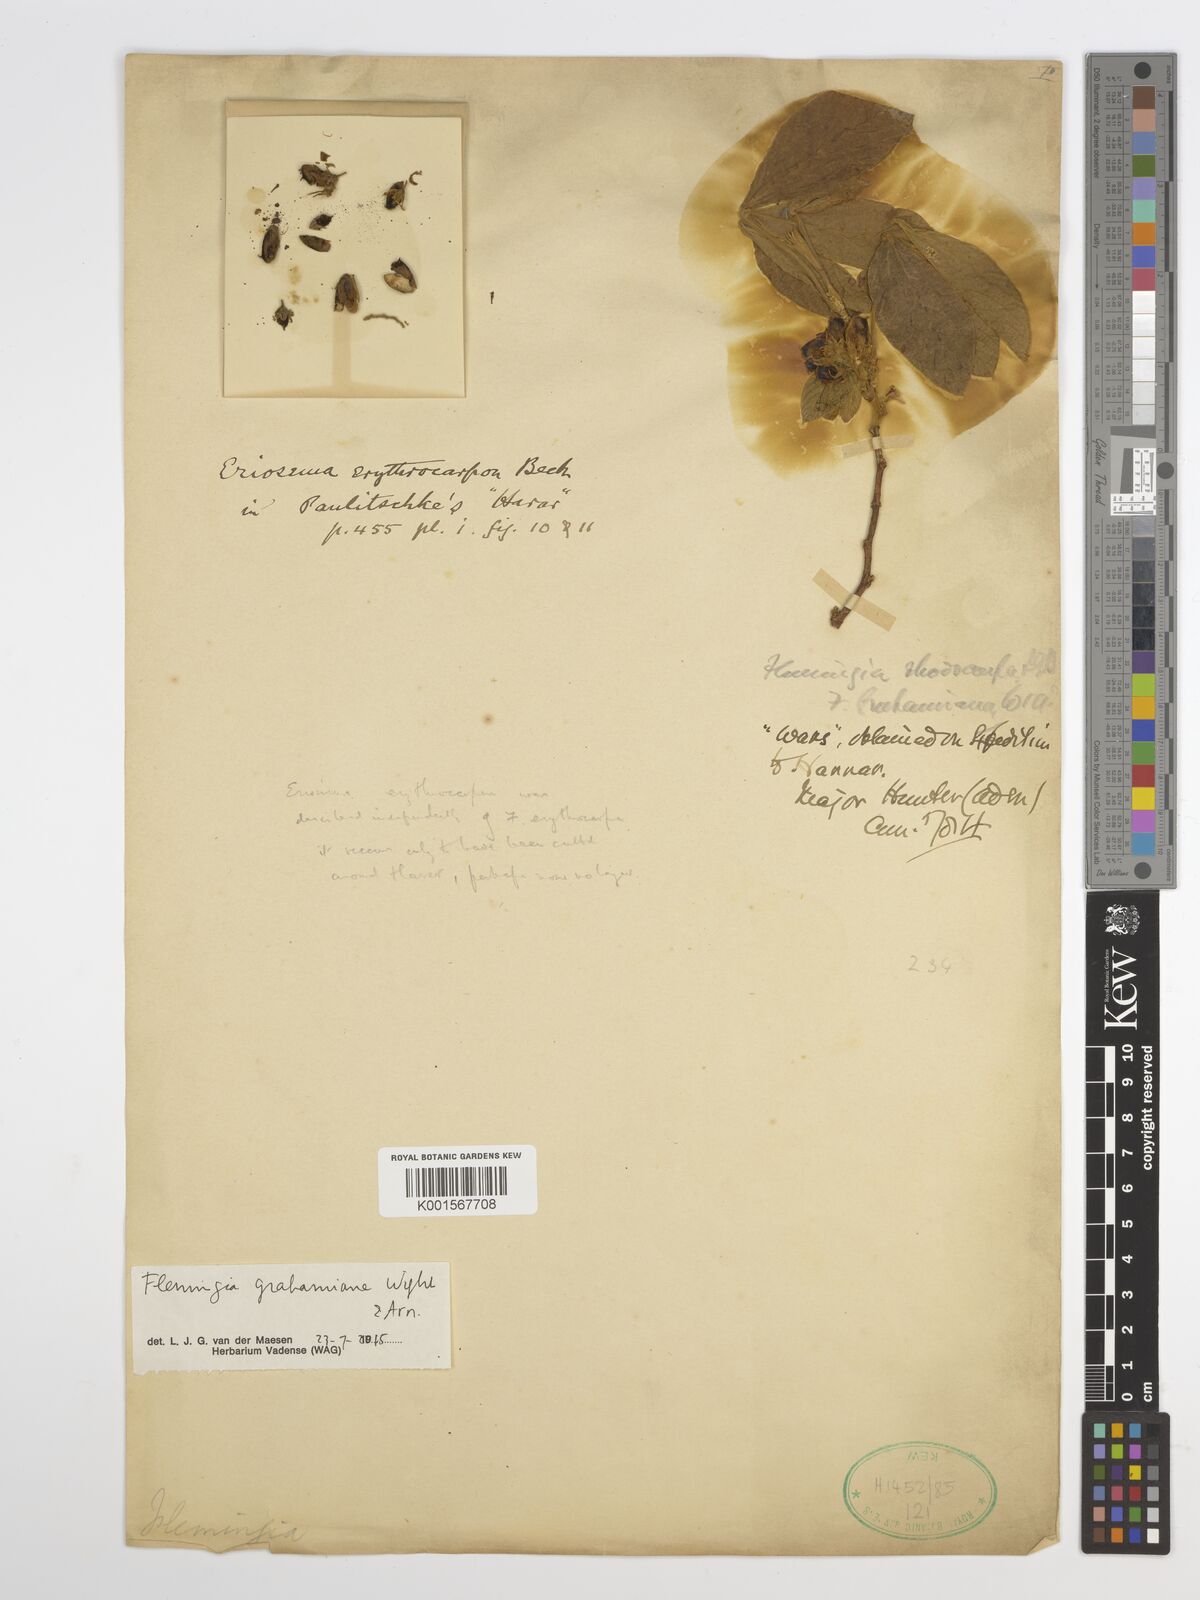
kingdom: Plantae
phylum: Tracheophyta
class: Magnoliopsida
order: Fabales
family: Fabaceae
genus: Flemingia
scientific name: Flemingia grahamiana
